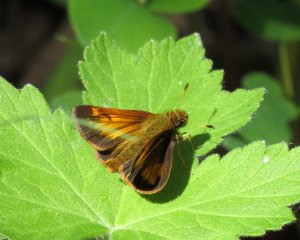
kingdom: Animalia
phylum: Arthropoda
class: Insecta
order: Lepidoptera
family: Hesperiidae
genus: Lon
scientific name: Lon hobomok
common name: Hobomok Skipper
